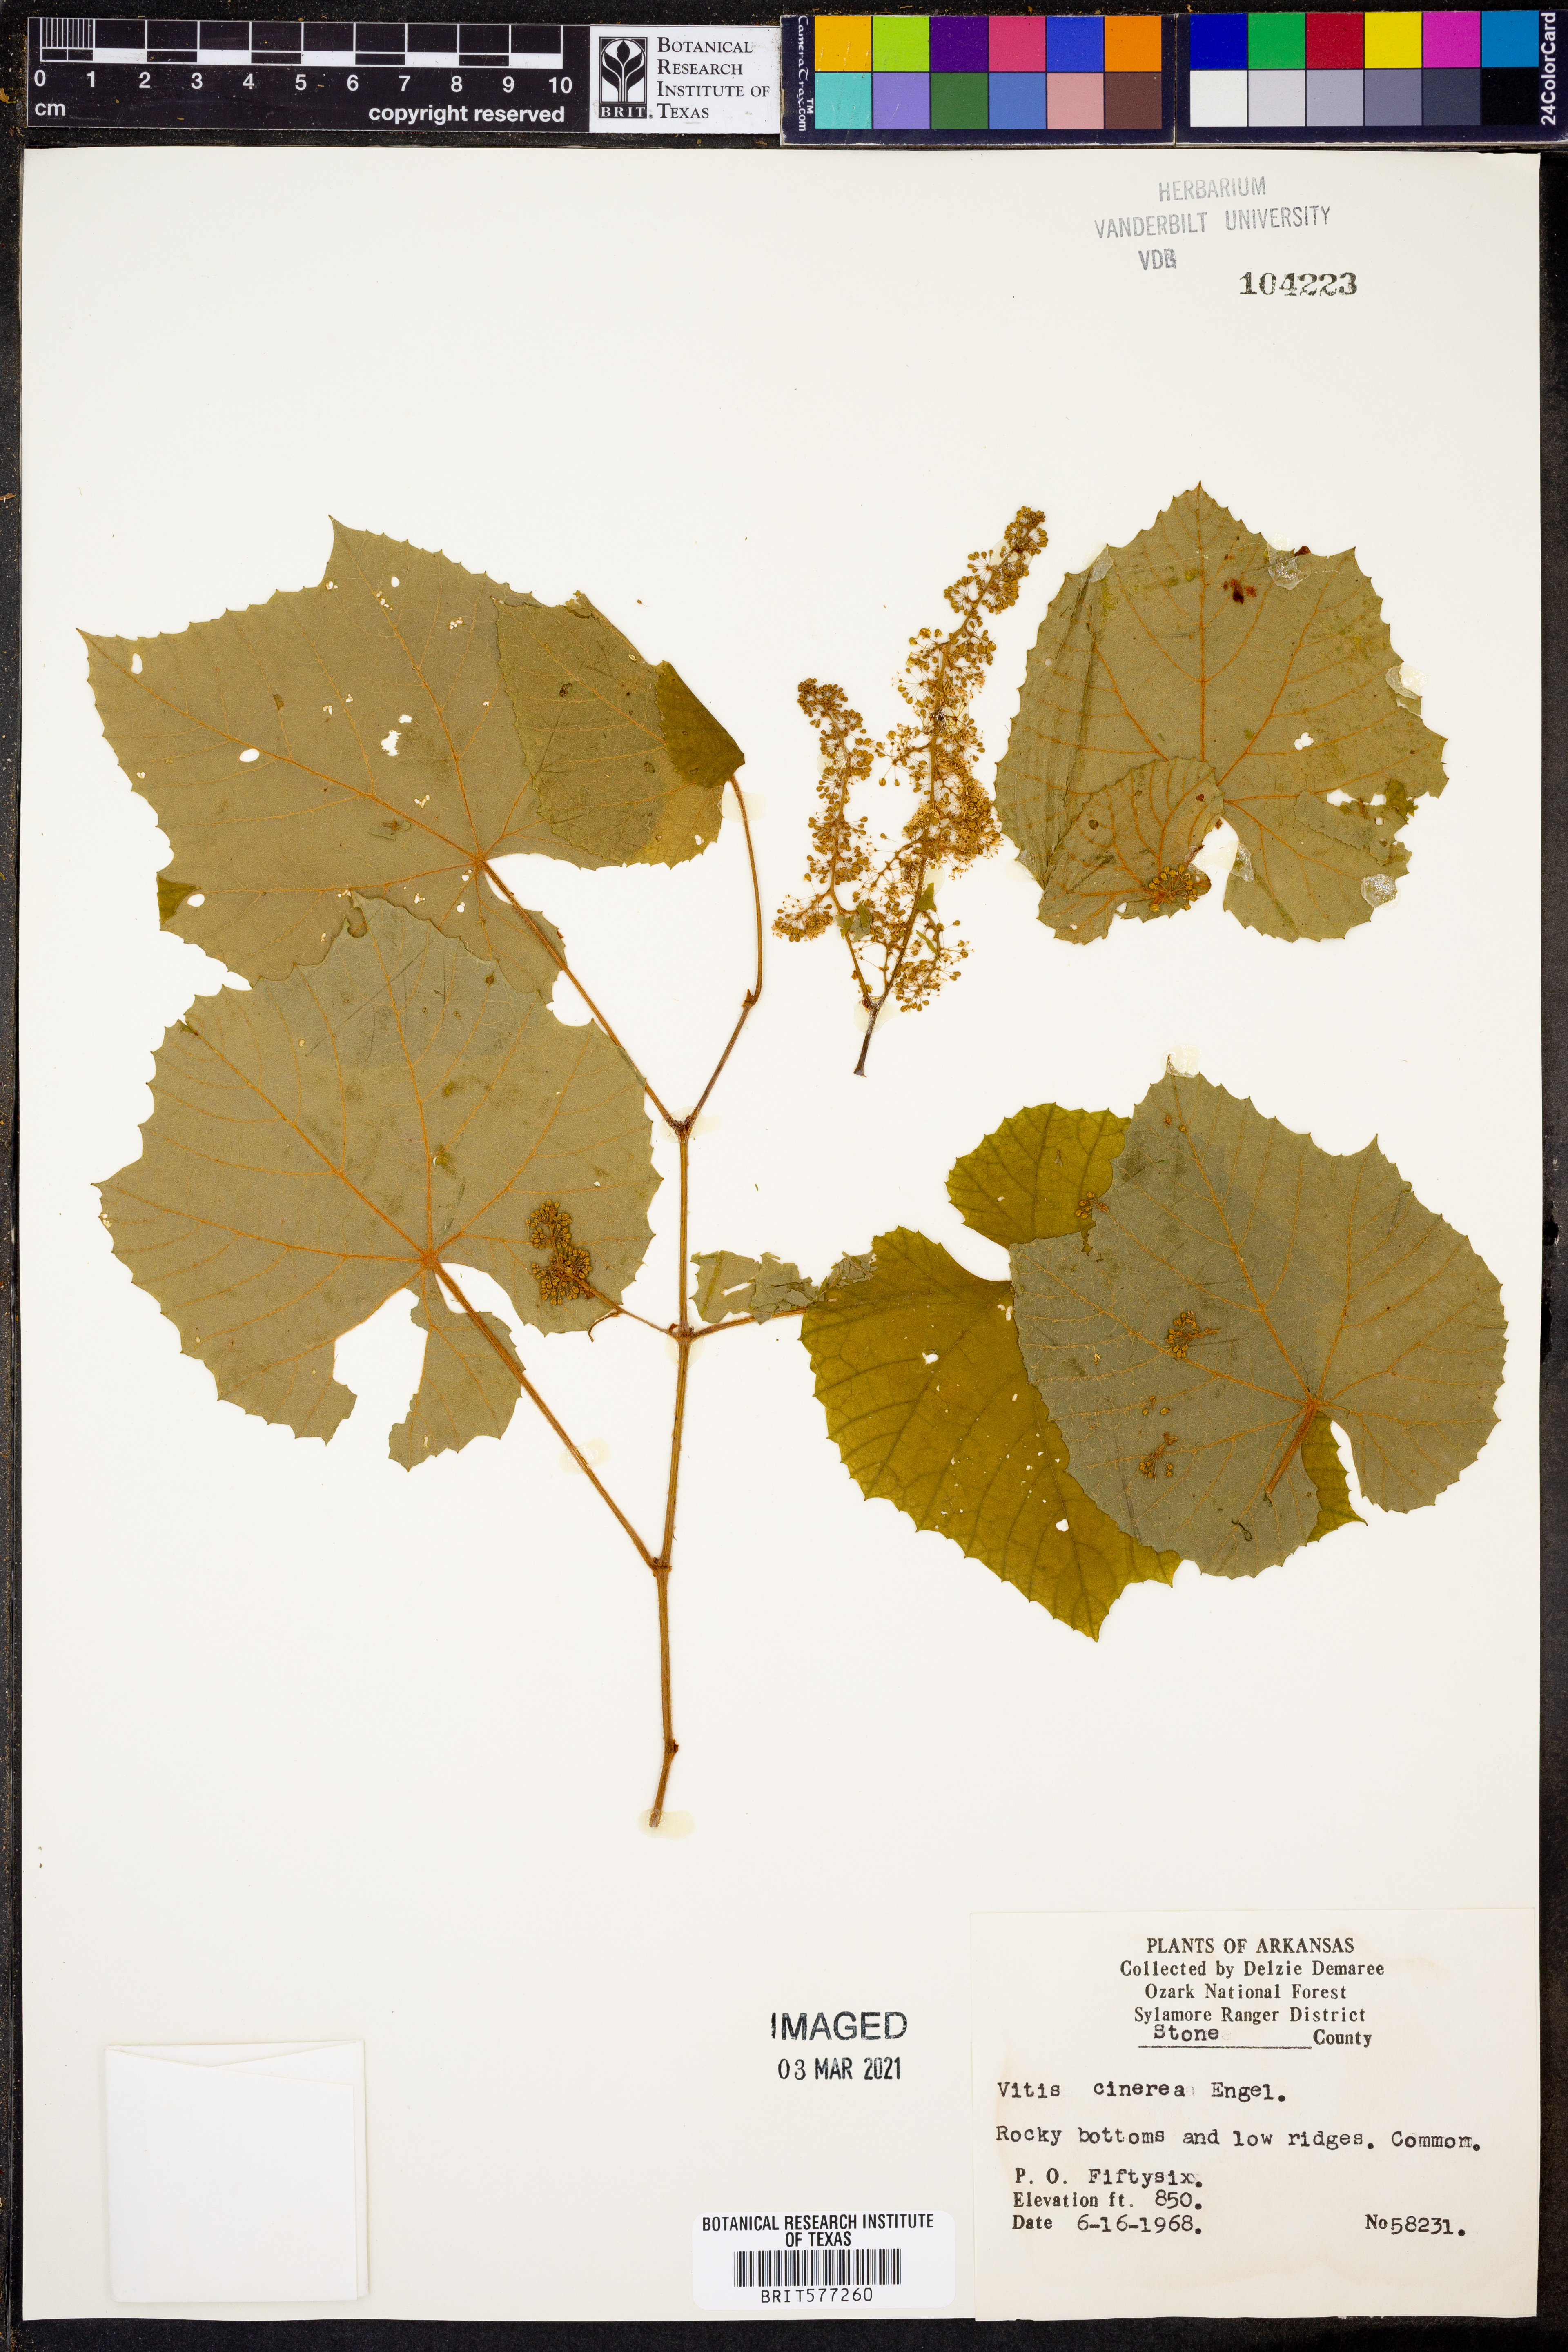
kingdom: Plantae
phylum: Tracheophyta
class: Magnoliopsida
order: Vitales
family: Vitaceae
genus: Vitis
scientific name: Vitis cinerea
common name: Ashy grape
